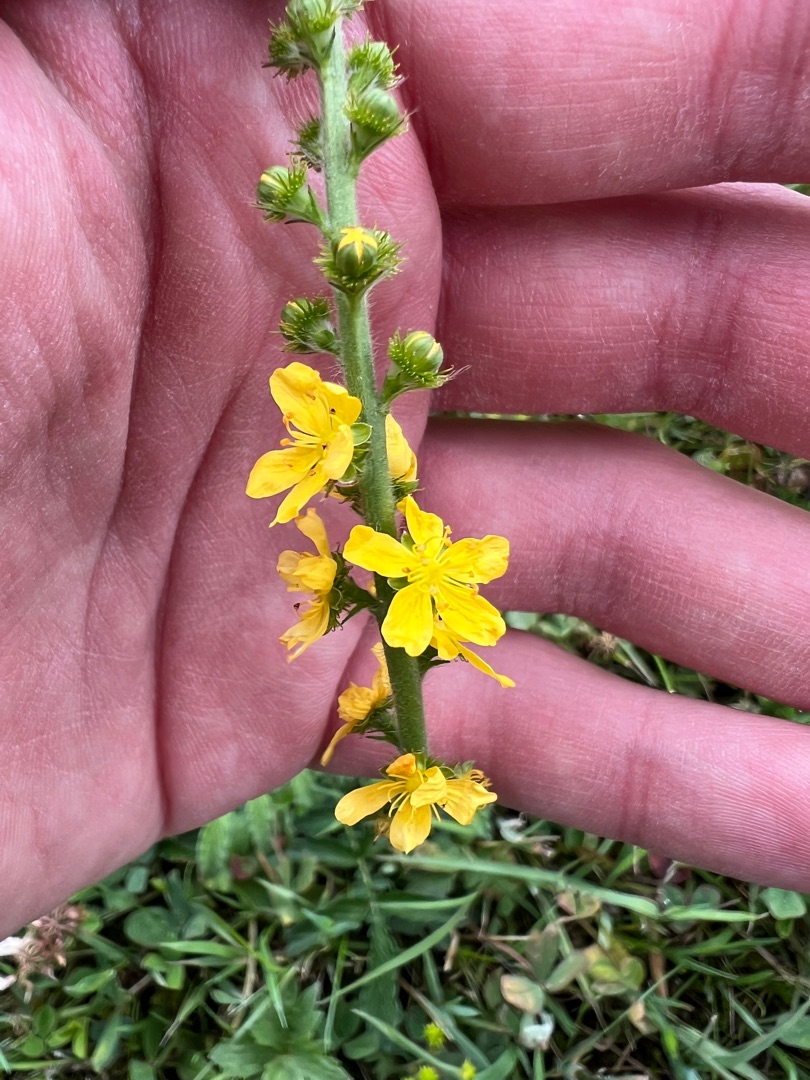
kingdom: Plantae
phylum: Tracheophyta
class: Magnoliopsida
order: Rosales
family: Rosaceae
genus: Agrimonia
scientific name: Agrimonia eupatoria
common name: Almindelig agermåne
